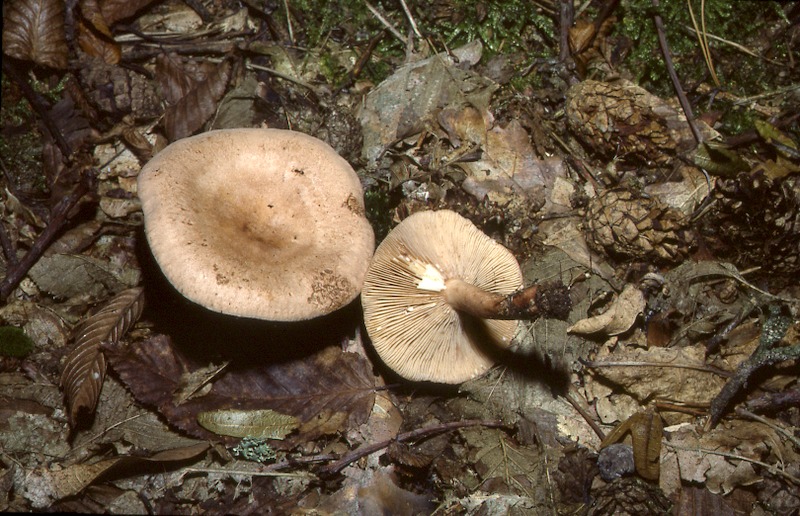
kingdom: Fungi
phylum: Basidiomycota
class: Agaricomycetes
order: Russulales
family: Russulaceae
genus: Lactarius
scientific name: Lactarius quietus
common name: Oak milk-cap
